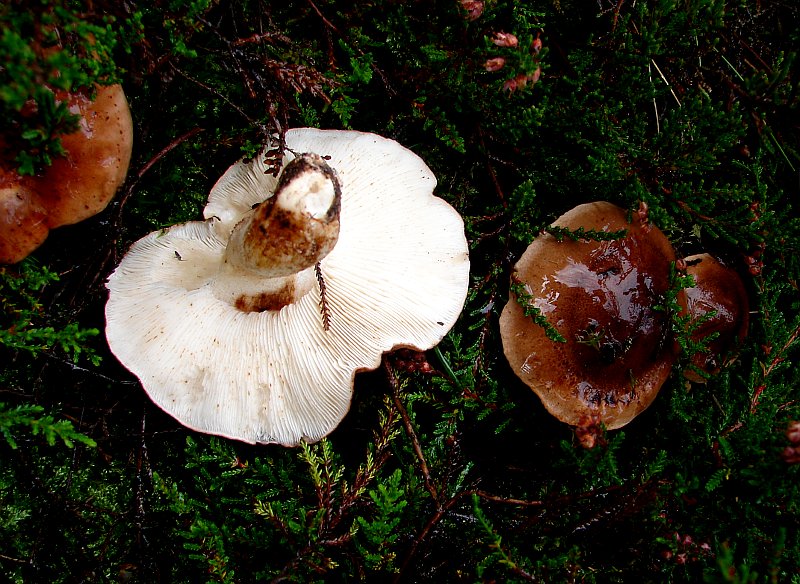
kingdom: Fungi
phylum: Basidiomycota
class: Agaricomycetes
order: Agaricales
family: Tricholomataceae
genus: Tricholoma
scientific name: Tricholoma pessundatum
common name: dråbeplettet ridderhat
